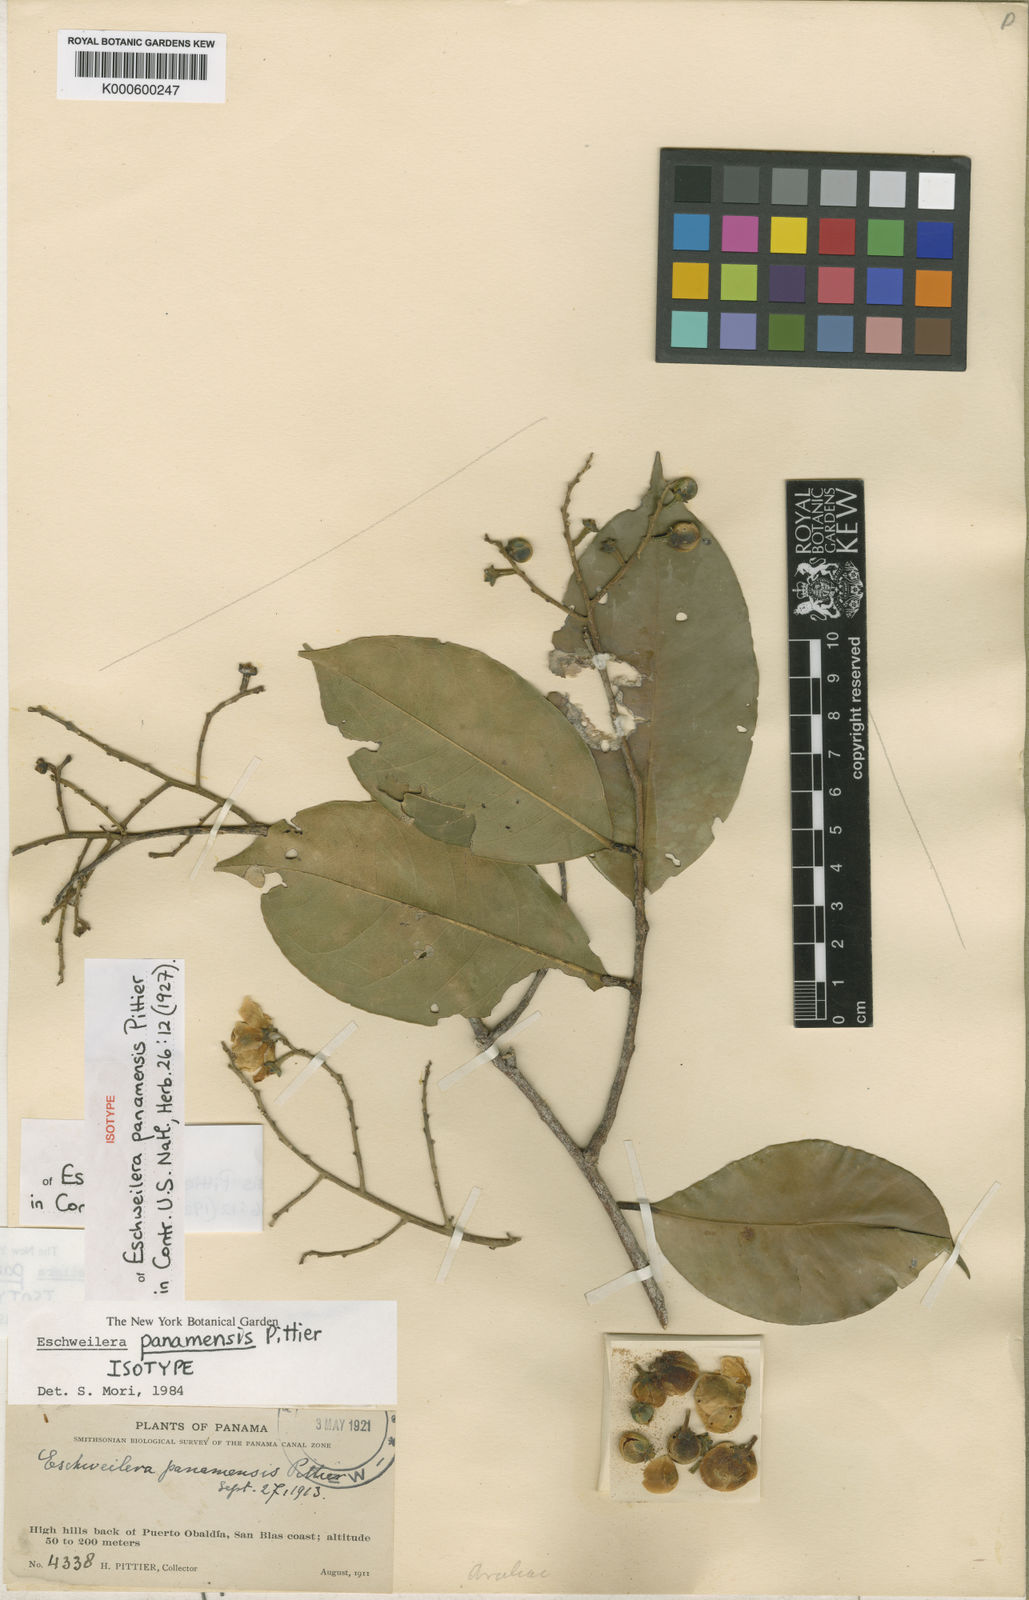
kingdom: Plantae
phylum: Tracheophyta
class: Magnoliopsida
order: Ericales
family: Lecythidaceae
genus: Eschweilera
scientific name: Eschweilera panamensis
